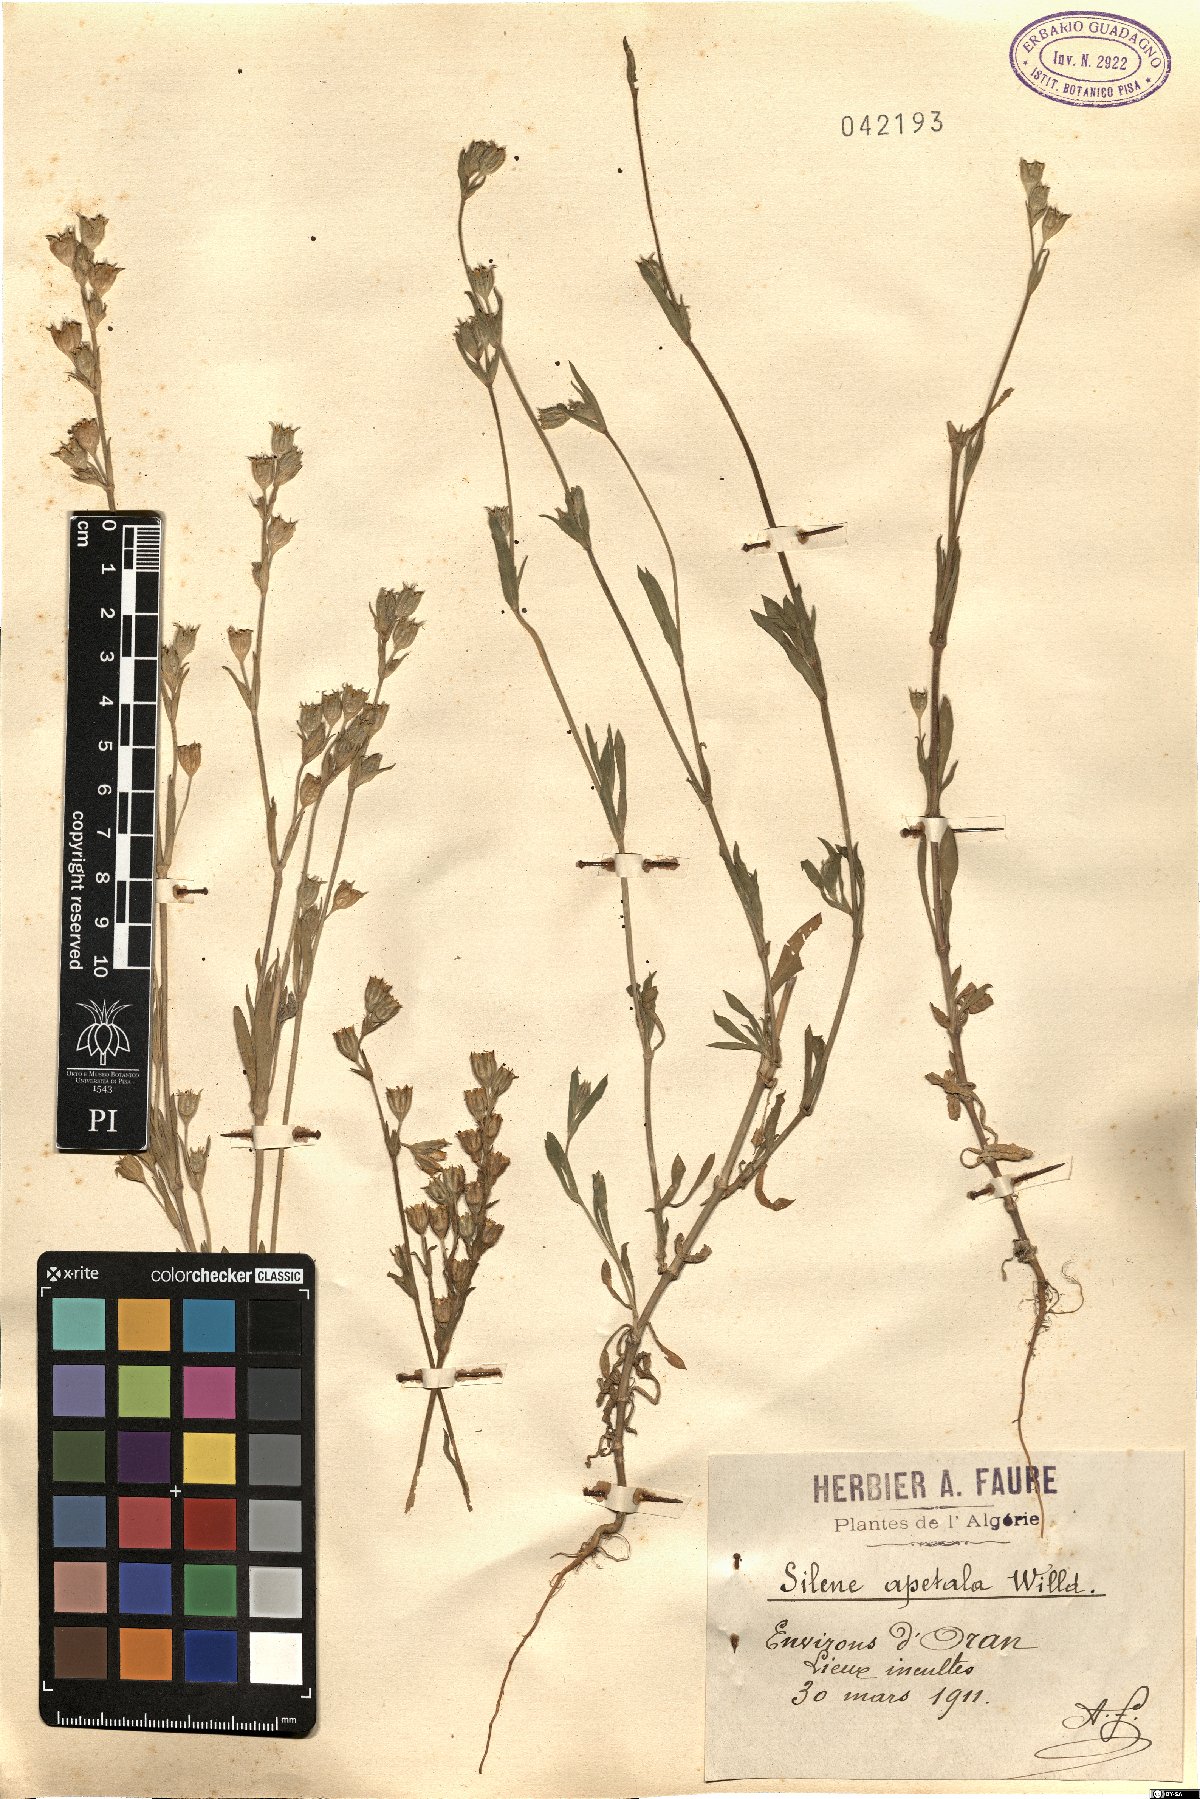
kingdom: Plantae
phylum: Tracheophyta
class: Magnoliopsida
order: Caryophyllales
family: Caryophyllaceae
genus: Silene
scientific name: Silene apetala
